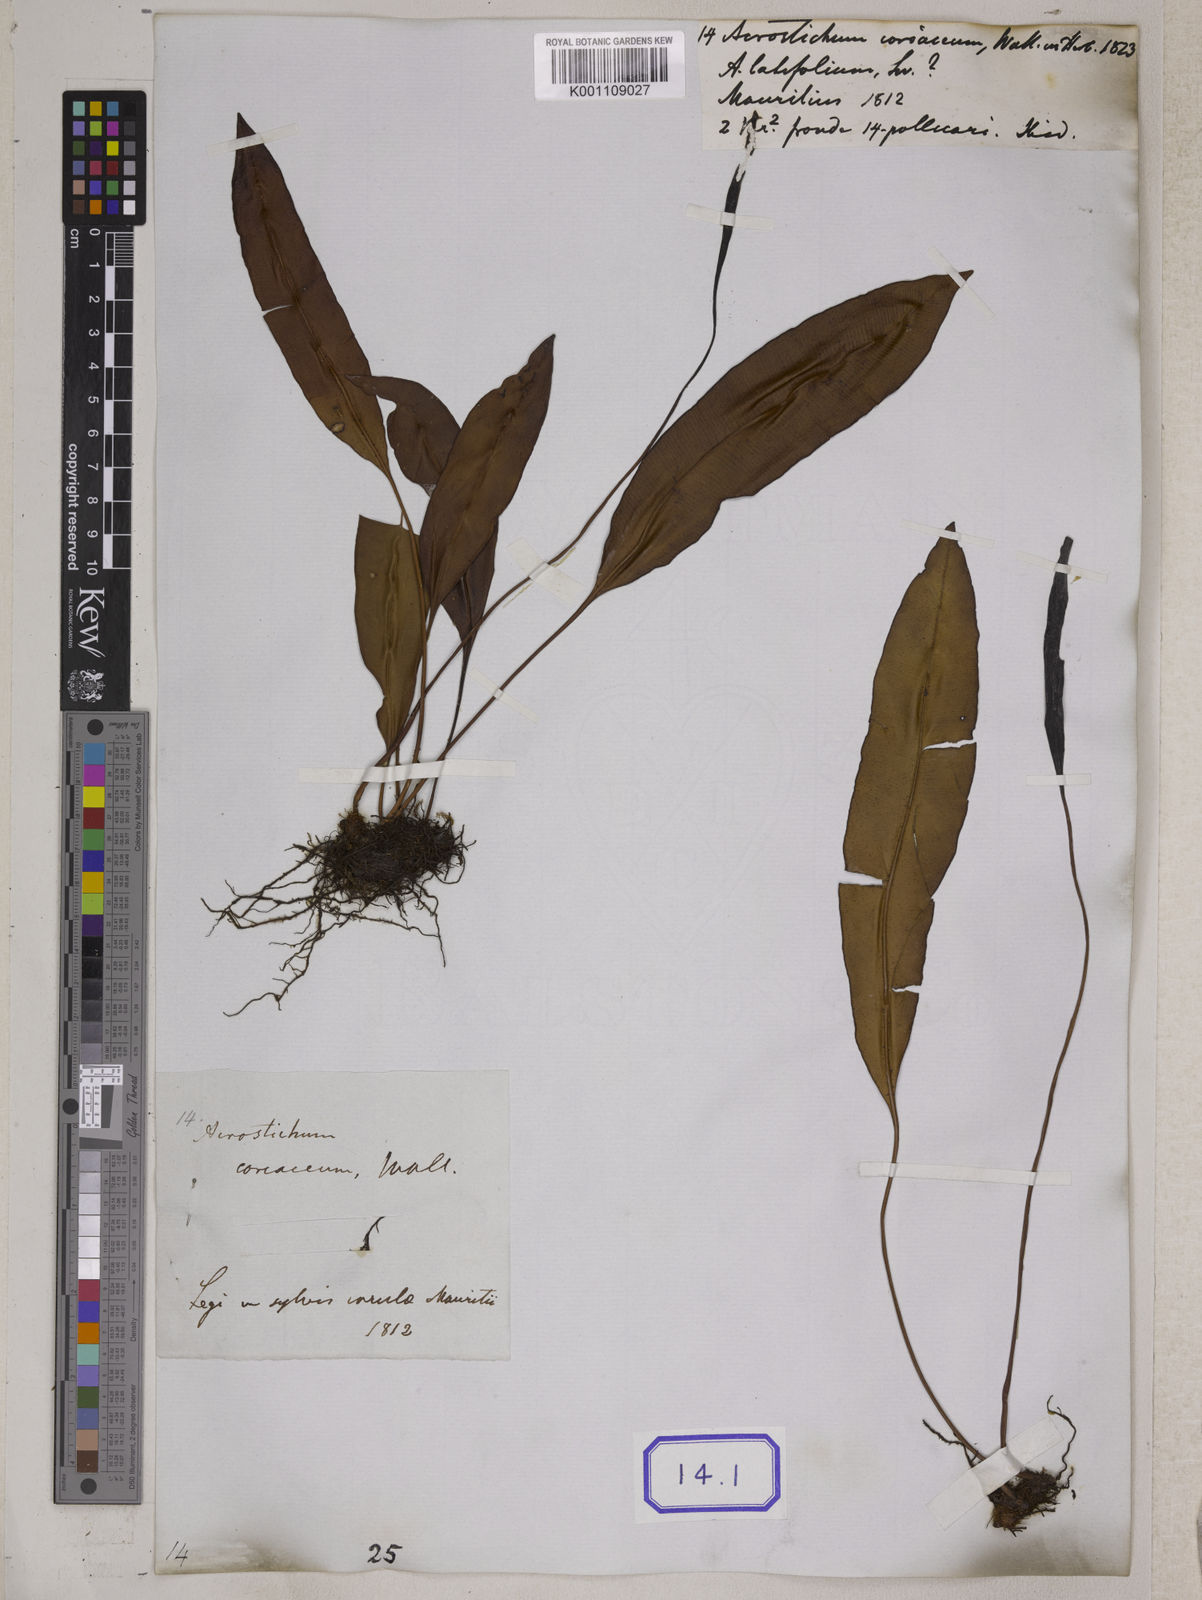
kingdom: Plantae
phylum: Tracheophyta
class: Polypodiopsida
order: Polypodiales
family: Dryopteridaceae
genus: Elaphoglossum
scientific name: Elaphoglossum macropodium
